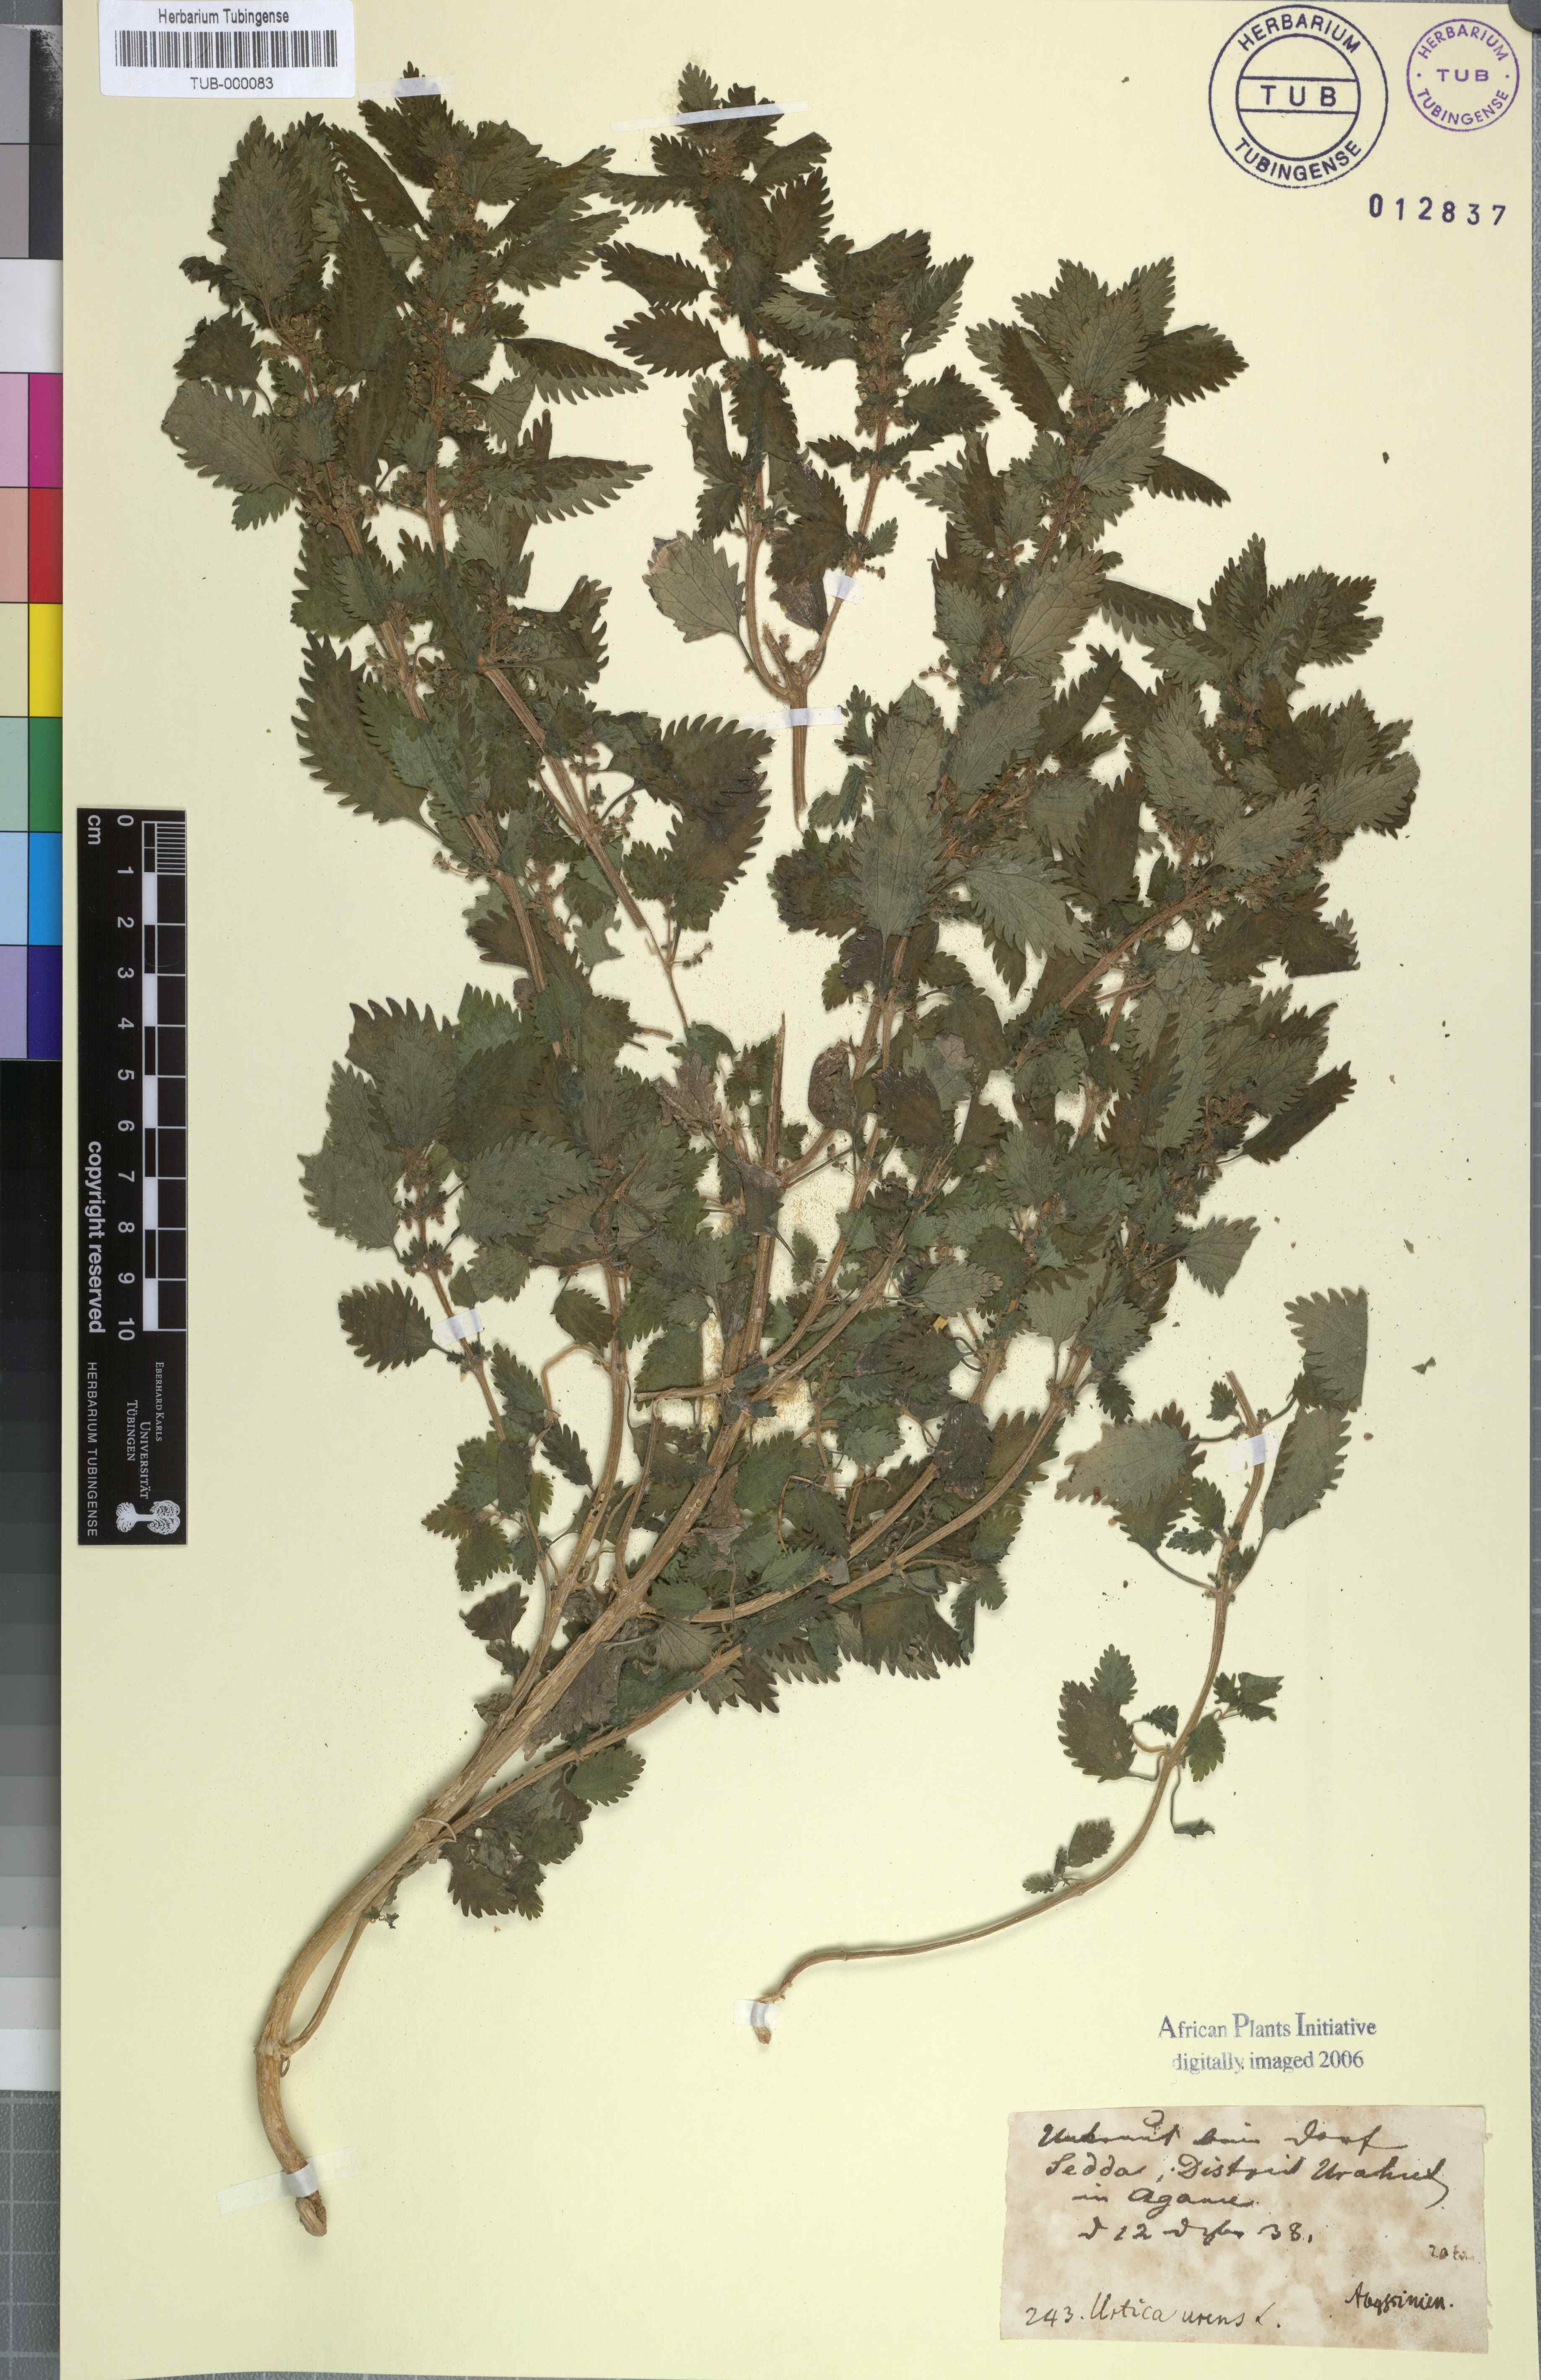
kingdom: Plantae
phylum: Tracheophyta
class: Magnoliopsida
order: Rosales
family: Urticaceae
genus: Urtica
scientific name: Urtica urens
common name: Dwarf nettle
